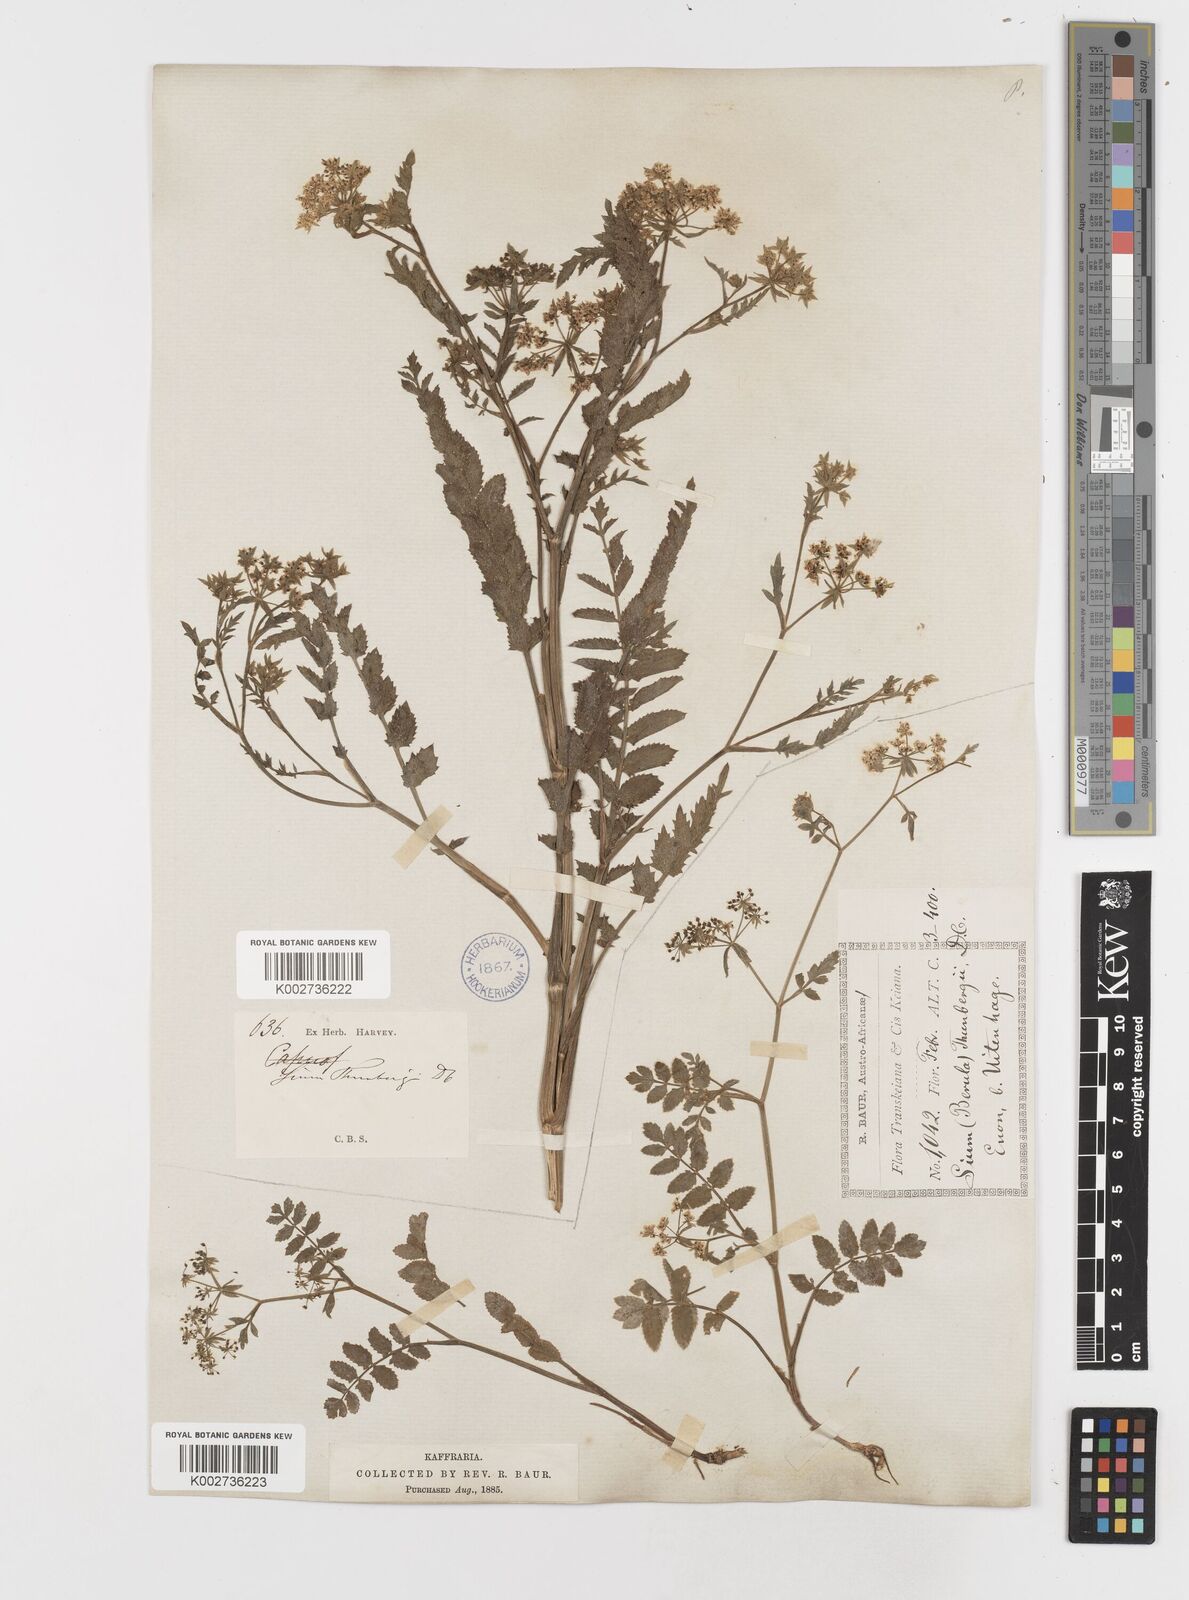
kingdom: Plantae
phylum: Tracheophyta
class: Magnoliopsida
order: Apiales
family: Apiaceae
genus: Berula
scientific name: Berula erecta
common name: Lesser water-parsnip
